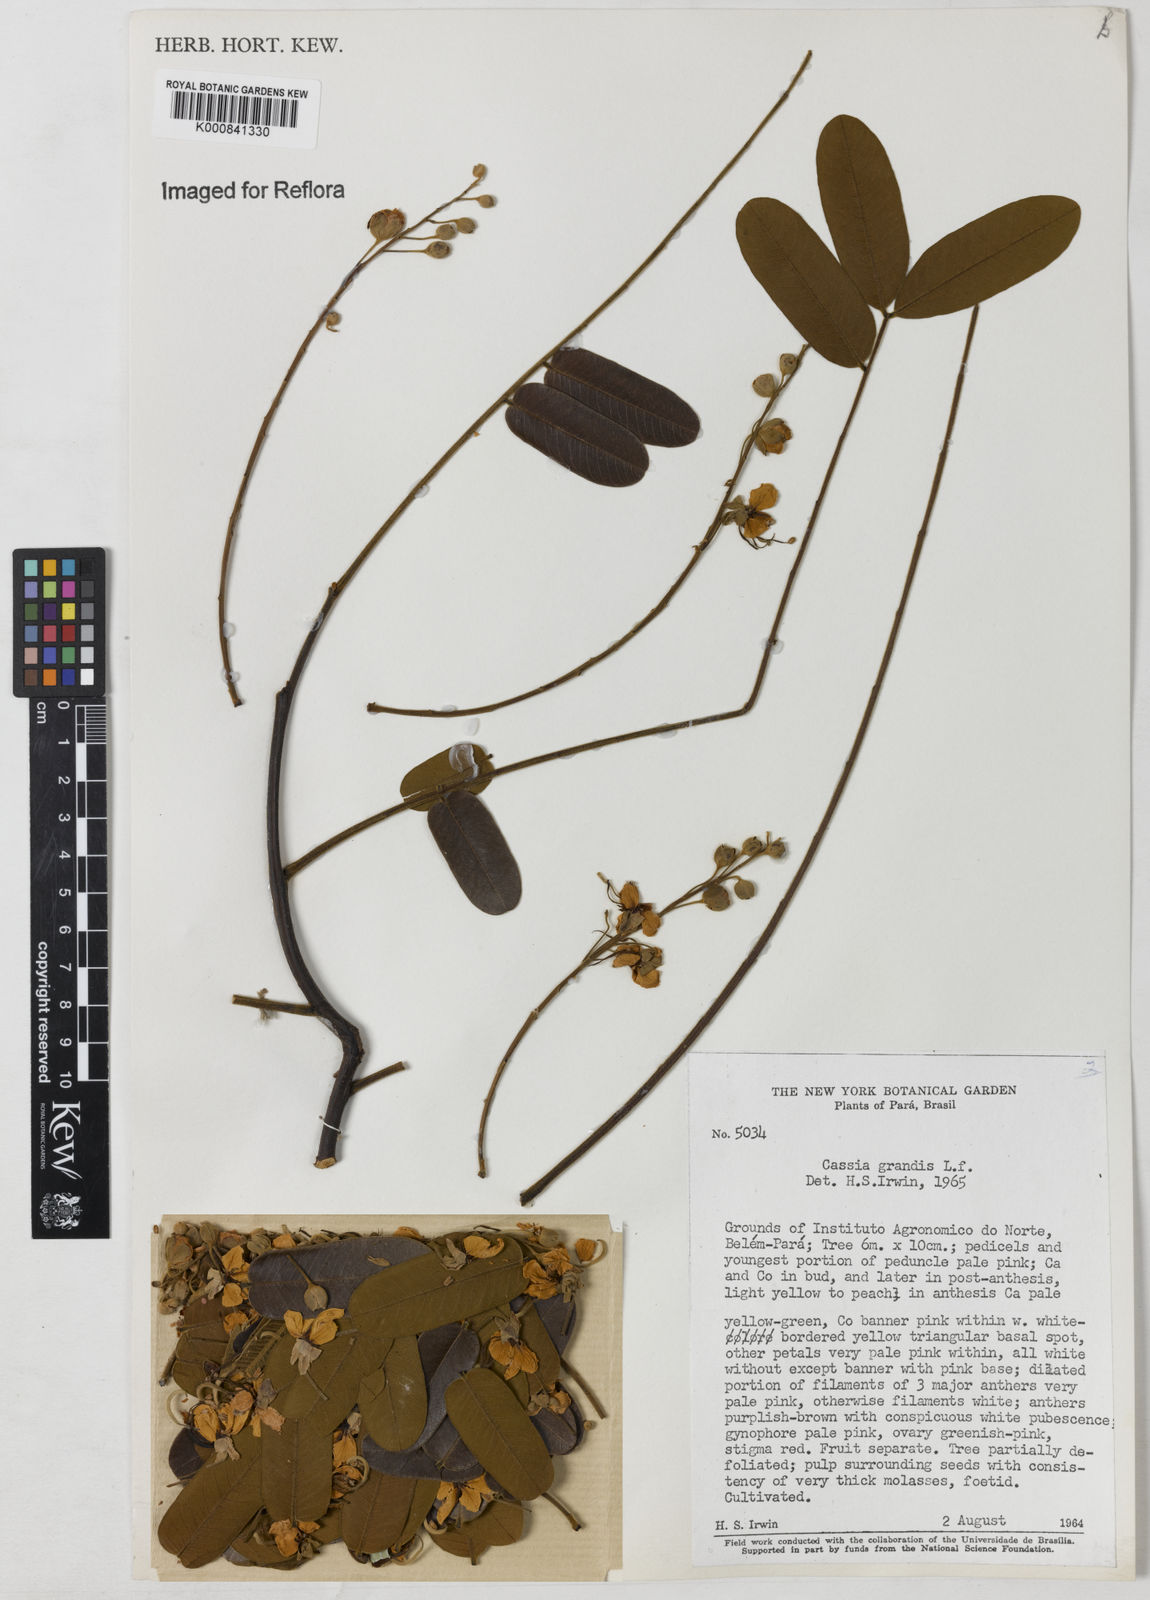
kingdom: Plantae
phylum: Tracheophyta
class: Magnoliopsida
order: Fabales
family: Fabaceae
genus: Cassia
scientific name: Cassia grandis
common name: Appleblossom cassia
